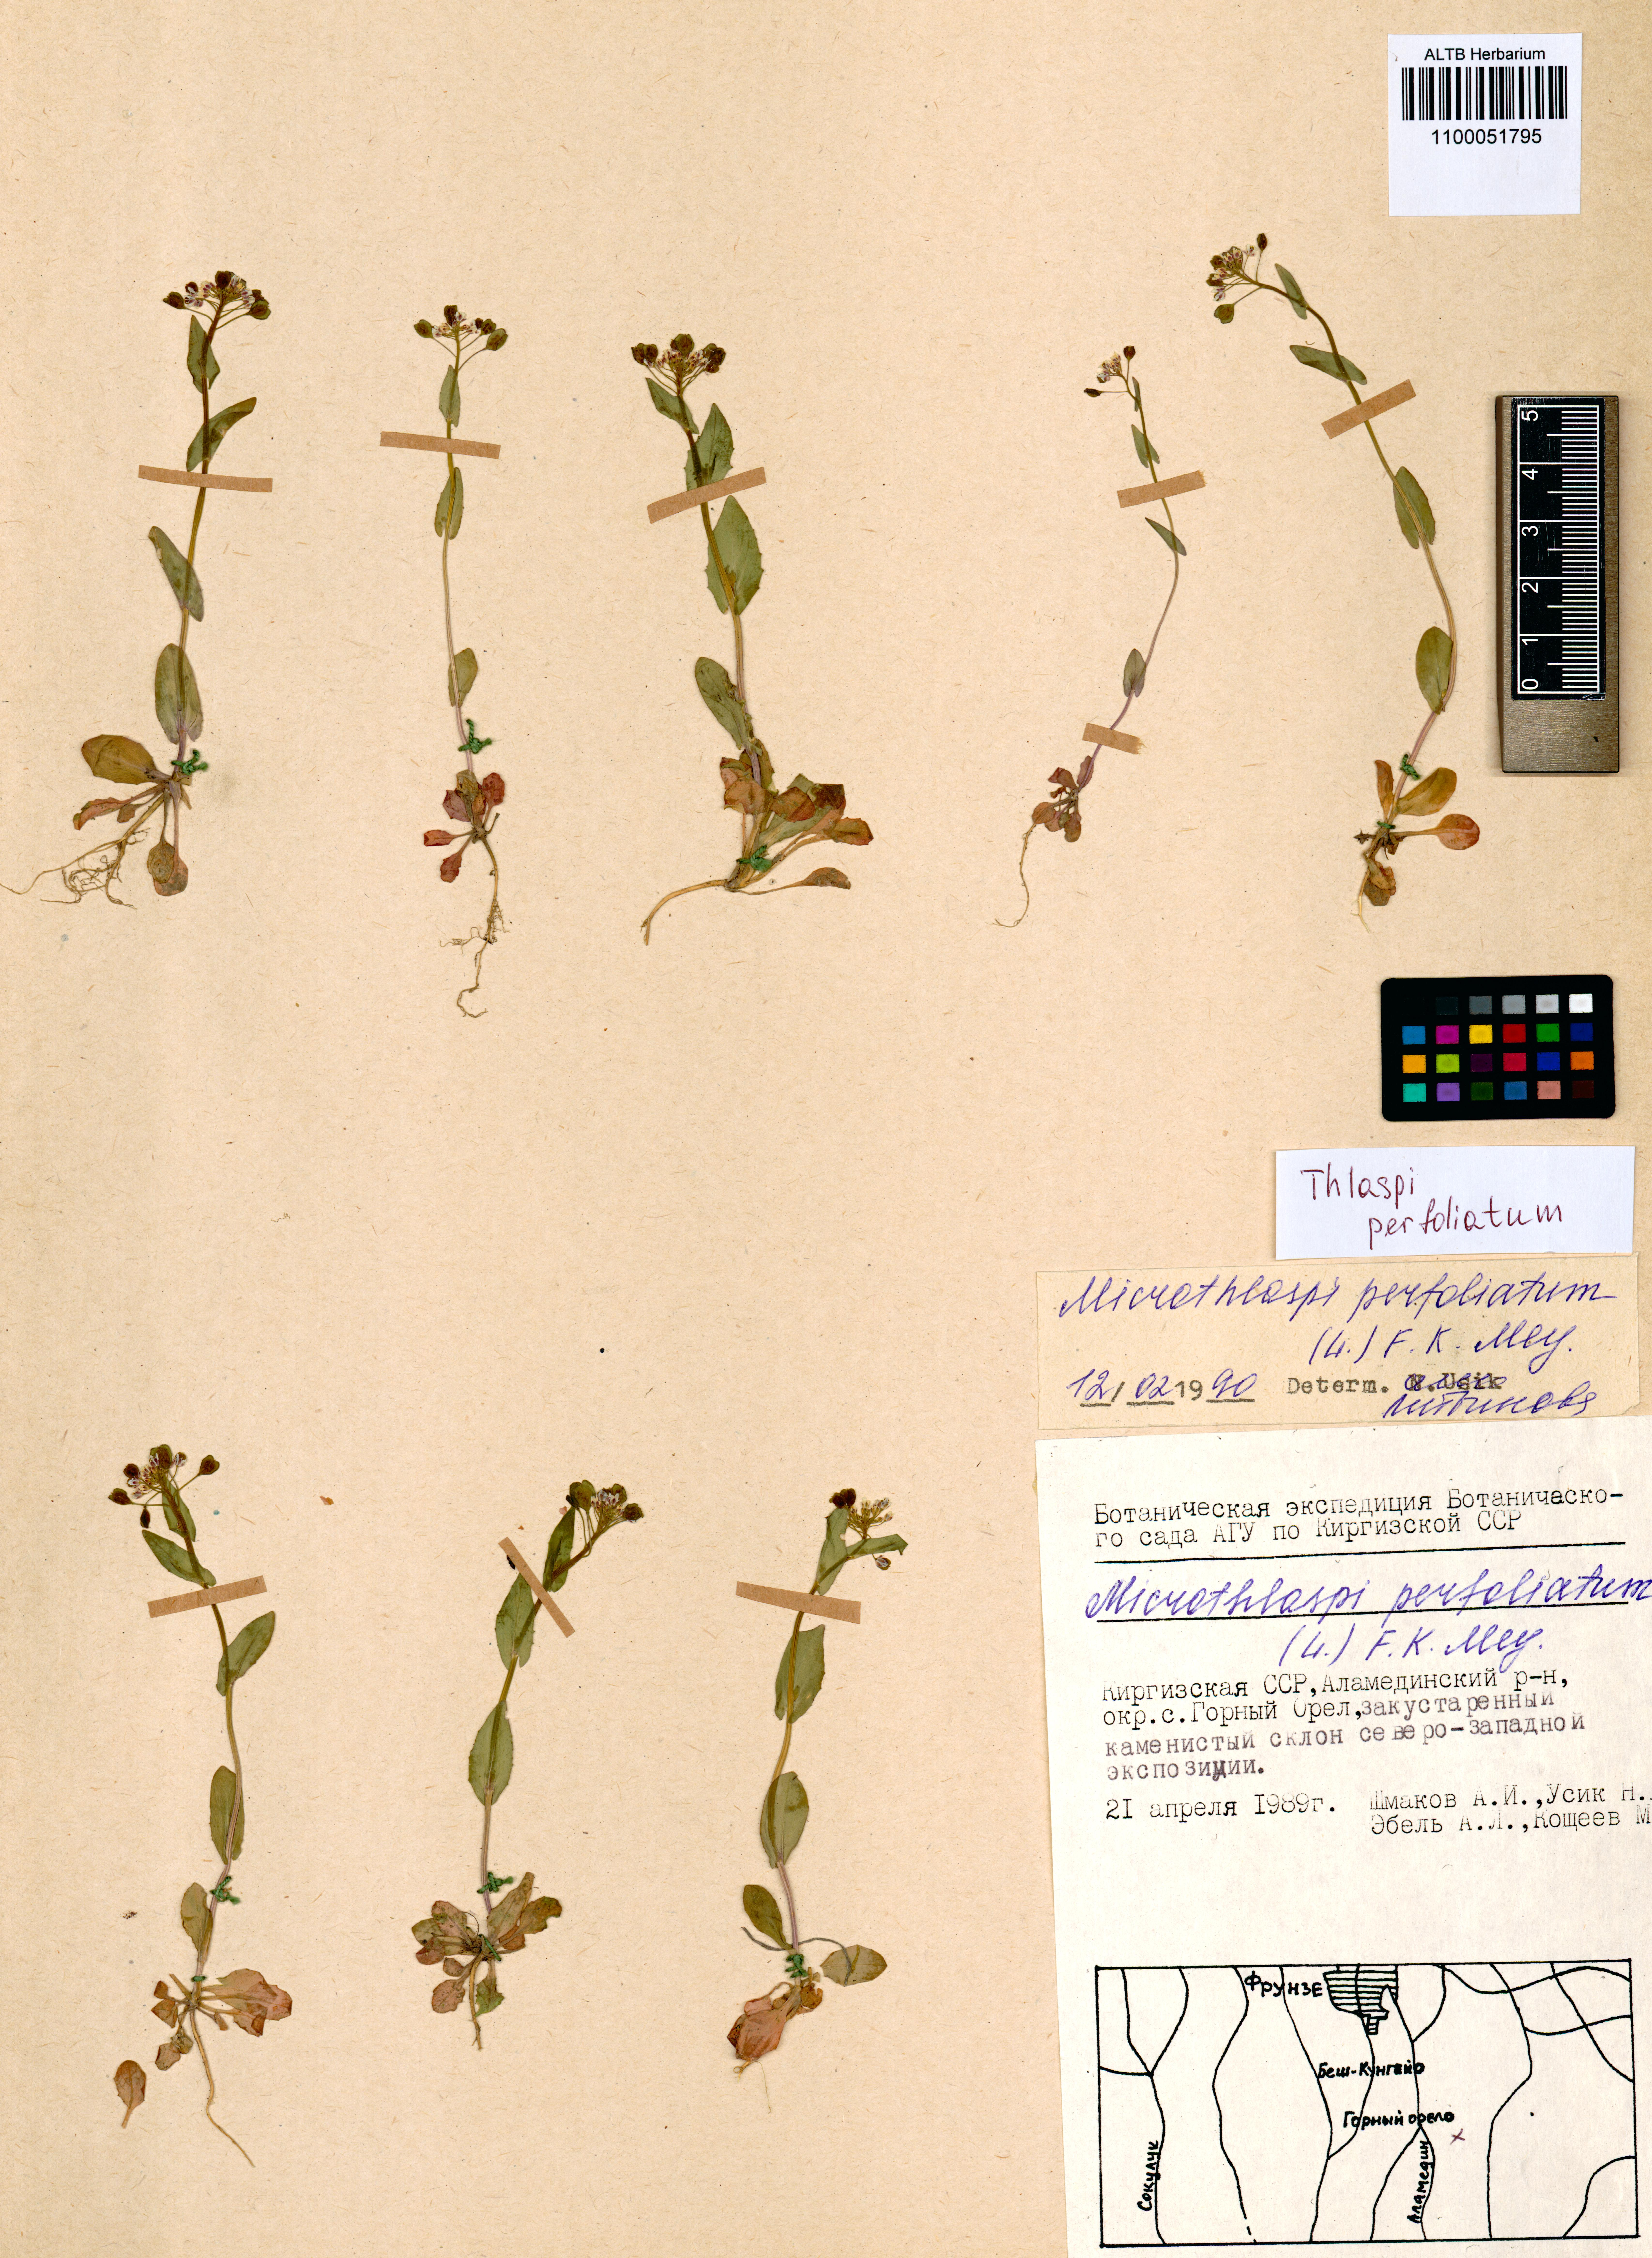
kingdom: Plantae
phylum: Tracheophyta
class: Magnoliopsida
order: Brassicales
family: Brassicaceae
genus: Noccaea
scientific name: Noccaea perfoliata
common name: Perfoliate pennycress
